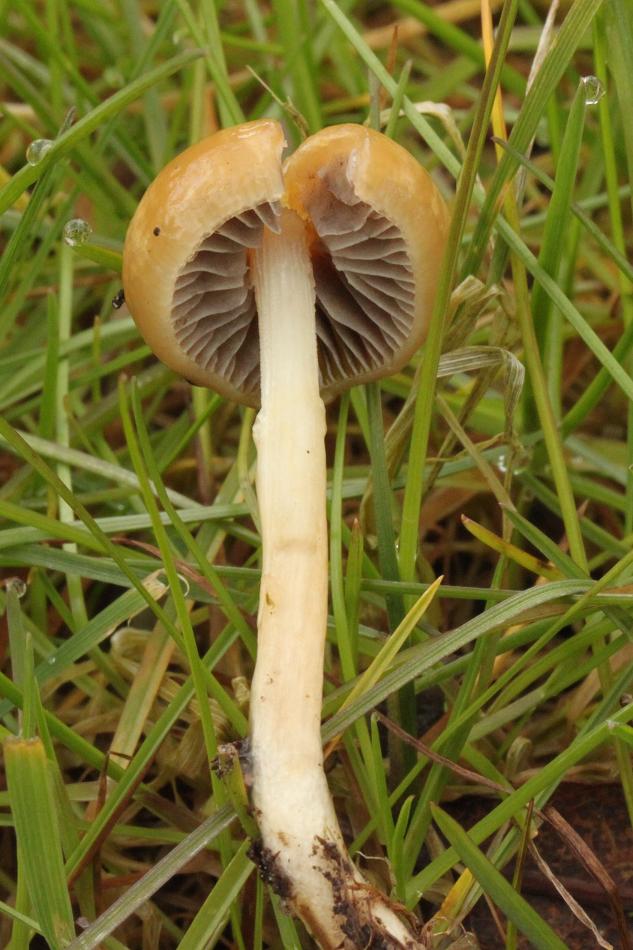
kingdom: Fungi
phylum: Basidiomycota
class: Agaricomycetes
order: Agaricales
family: Strophariaceae
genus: Stropharia
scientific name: Stropharia
